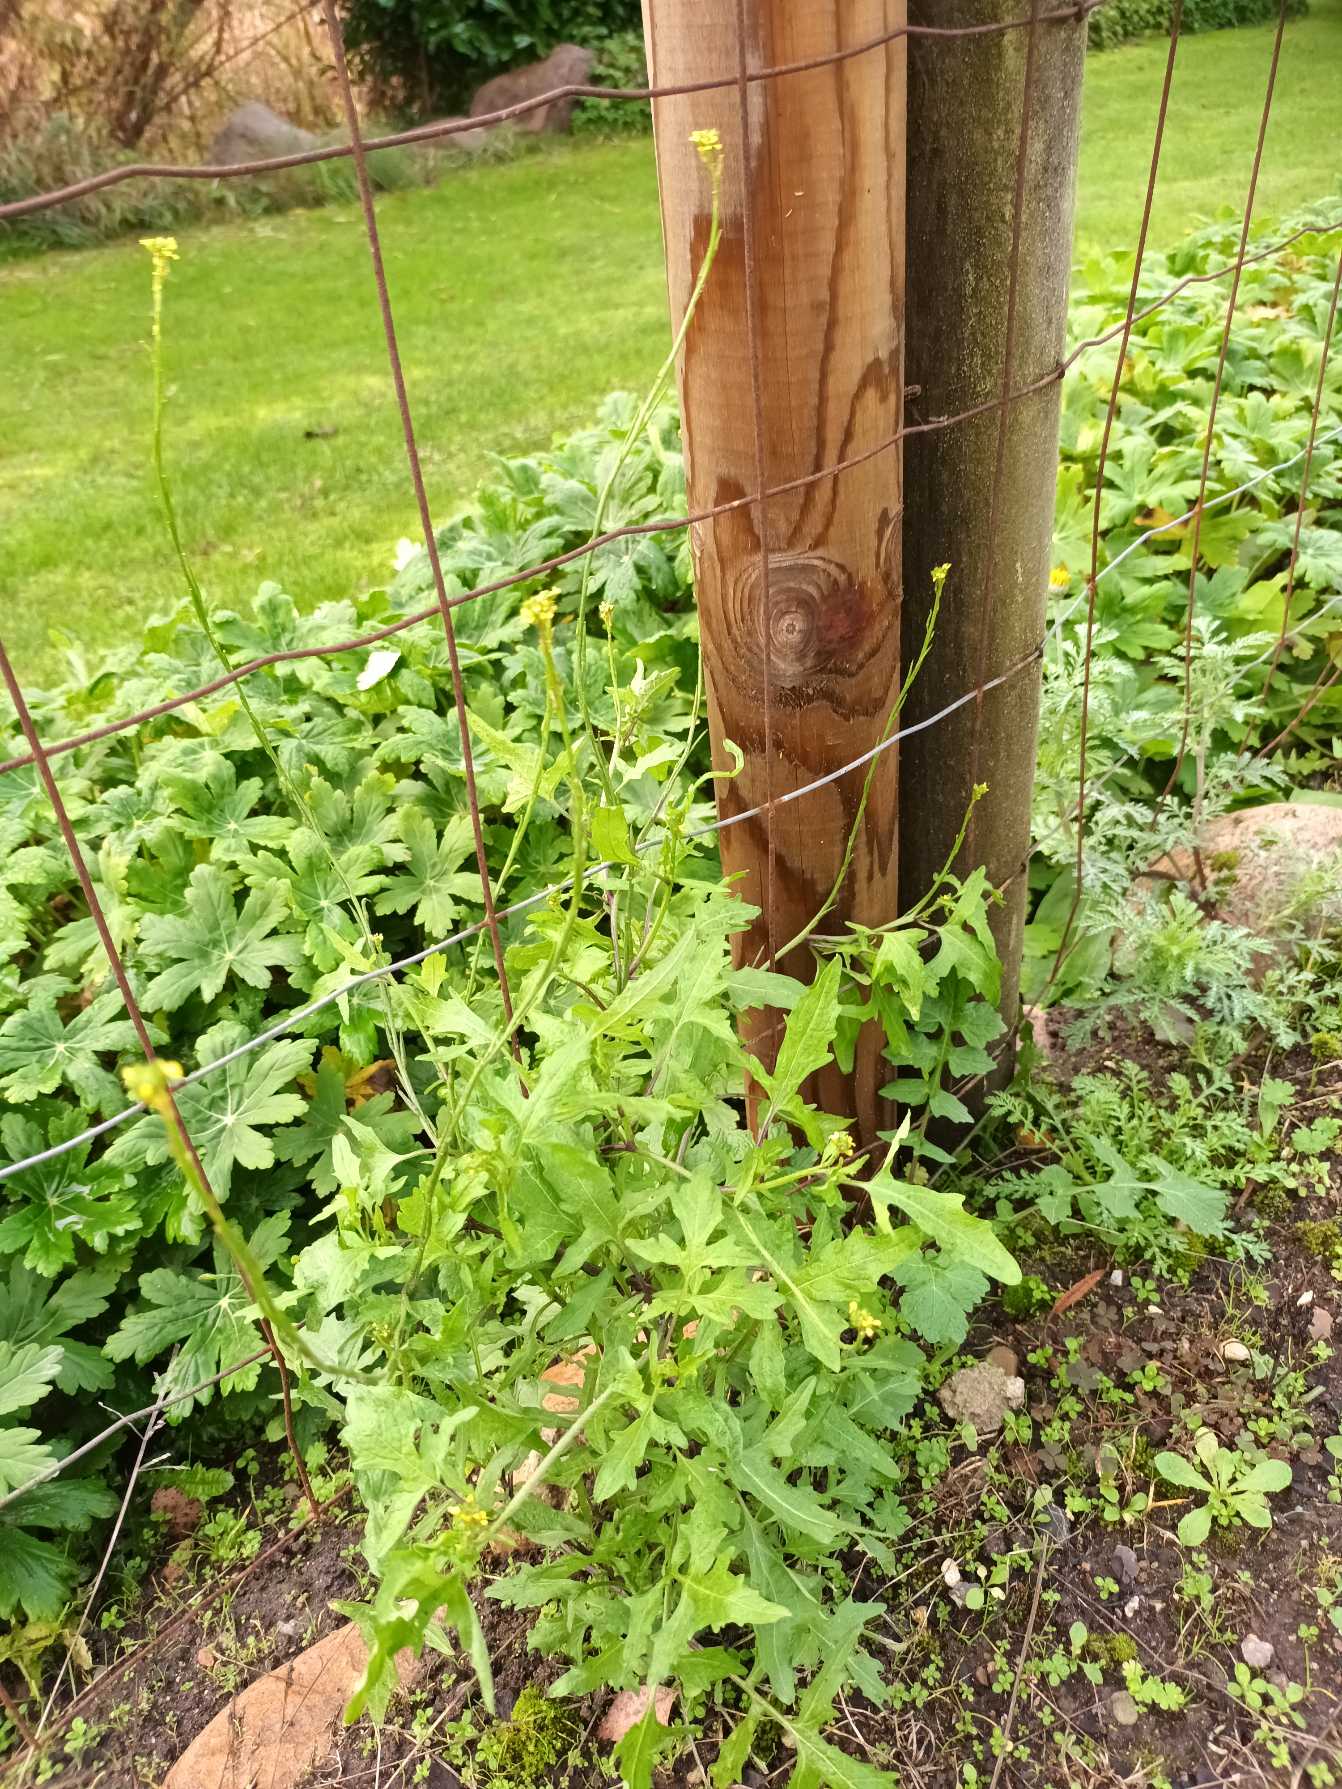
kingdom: Plantae
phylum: Tracheophyta
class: Magnoliopsida
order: Brassicales
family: Brassicaceae
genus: Sisymbrium
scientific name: Sisymbrium officinale
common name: Rank vejsennep
